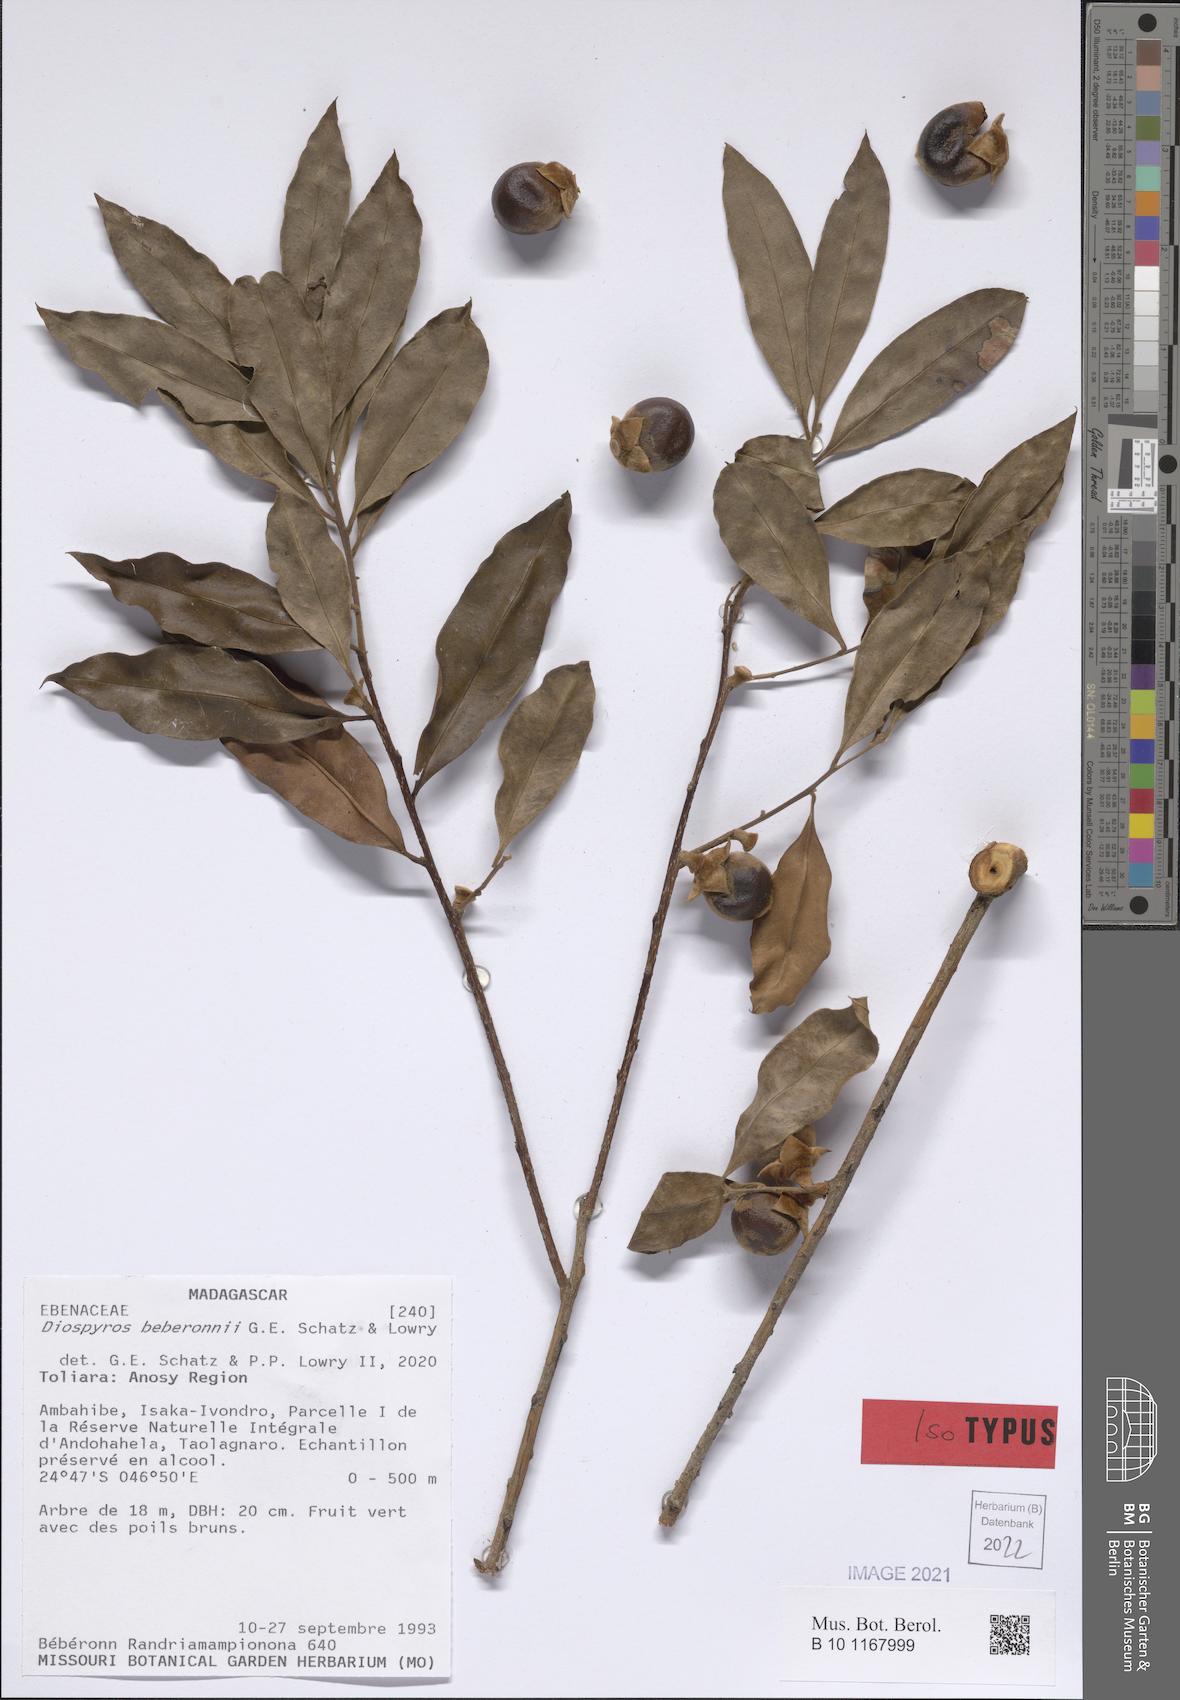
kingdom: Plantae
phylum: Tracheophyta
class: Magnoliopsida
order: Ericales
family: Ebenaceae
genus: Diospyros
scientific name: Diospyros beberonnii
